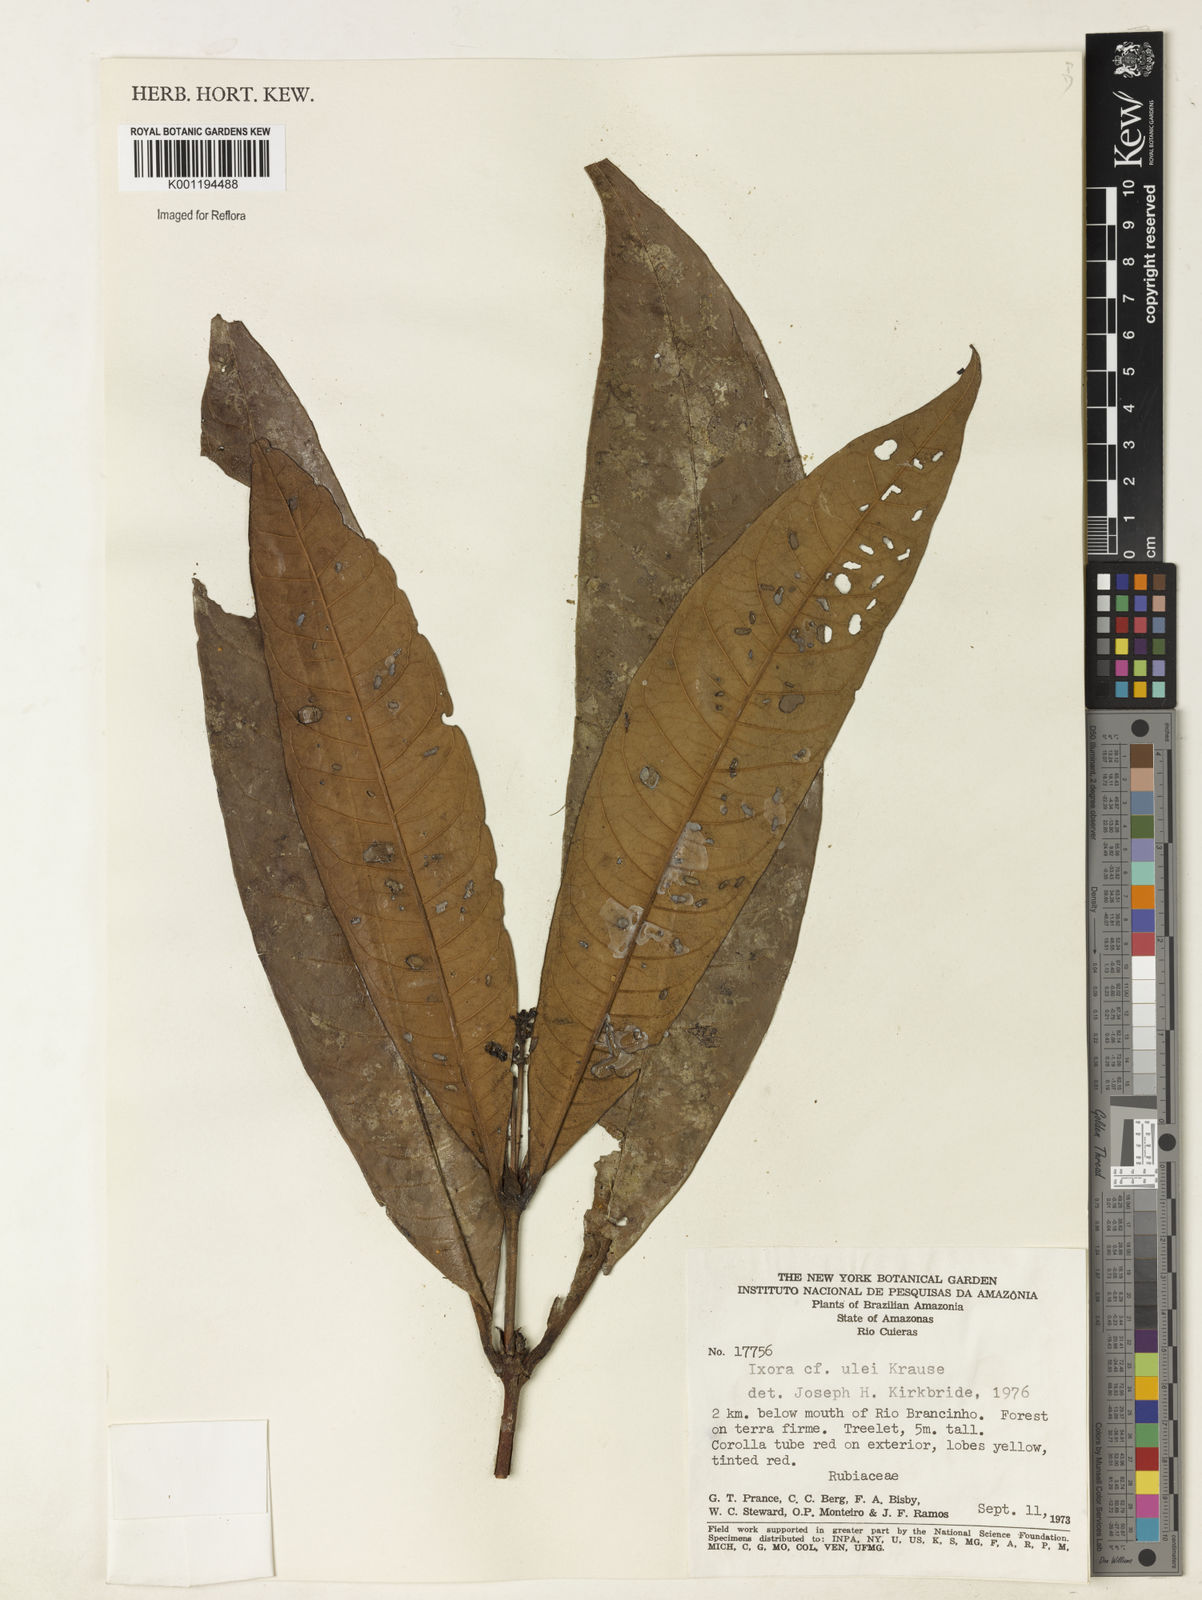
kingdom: Plantae
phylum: Tracheophyta
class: Magnoliopsida
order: Gentianales
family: Rubiaceae
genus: Ixora
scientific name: Ixora sparsifolia
